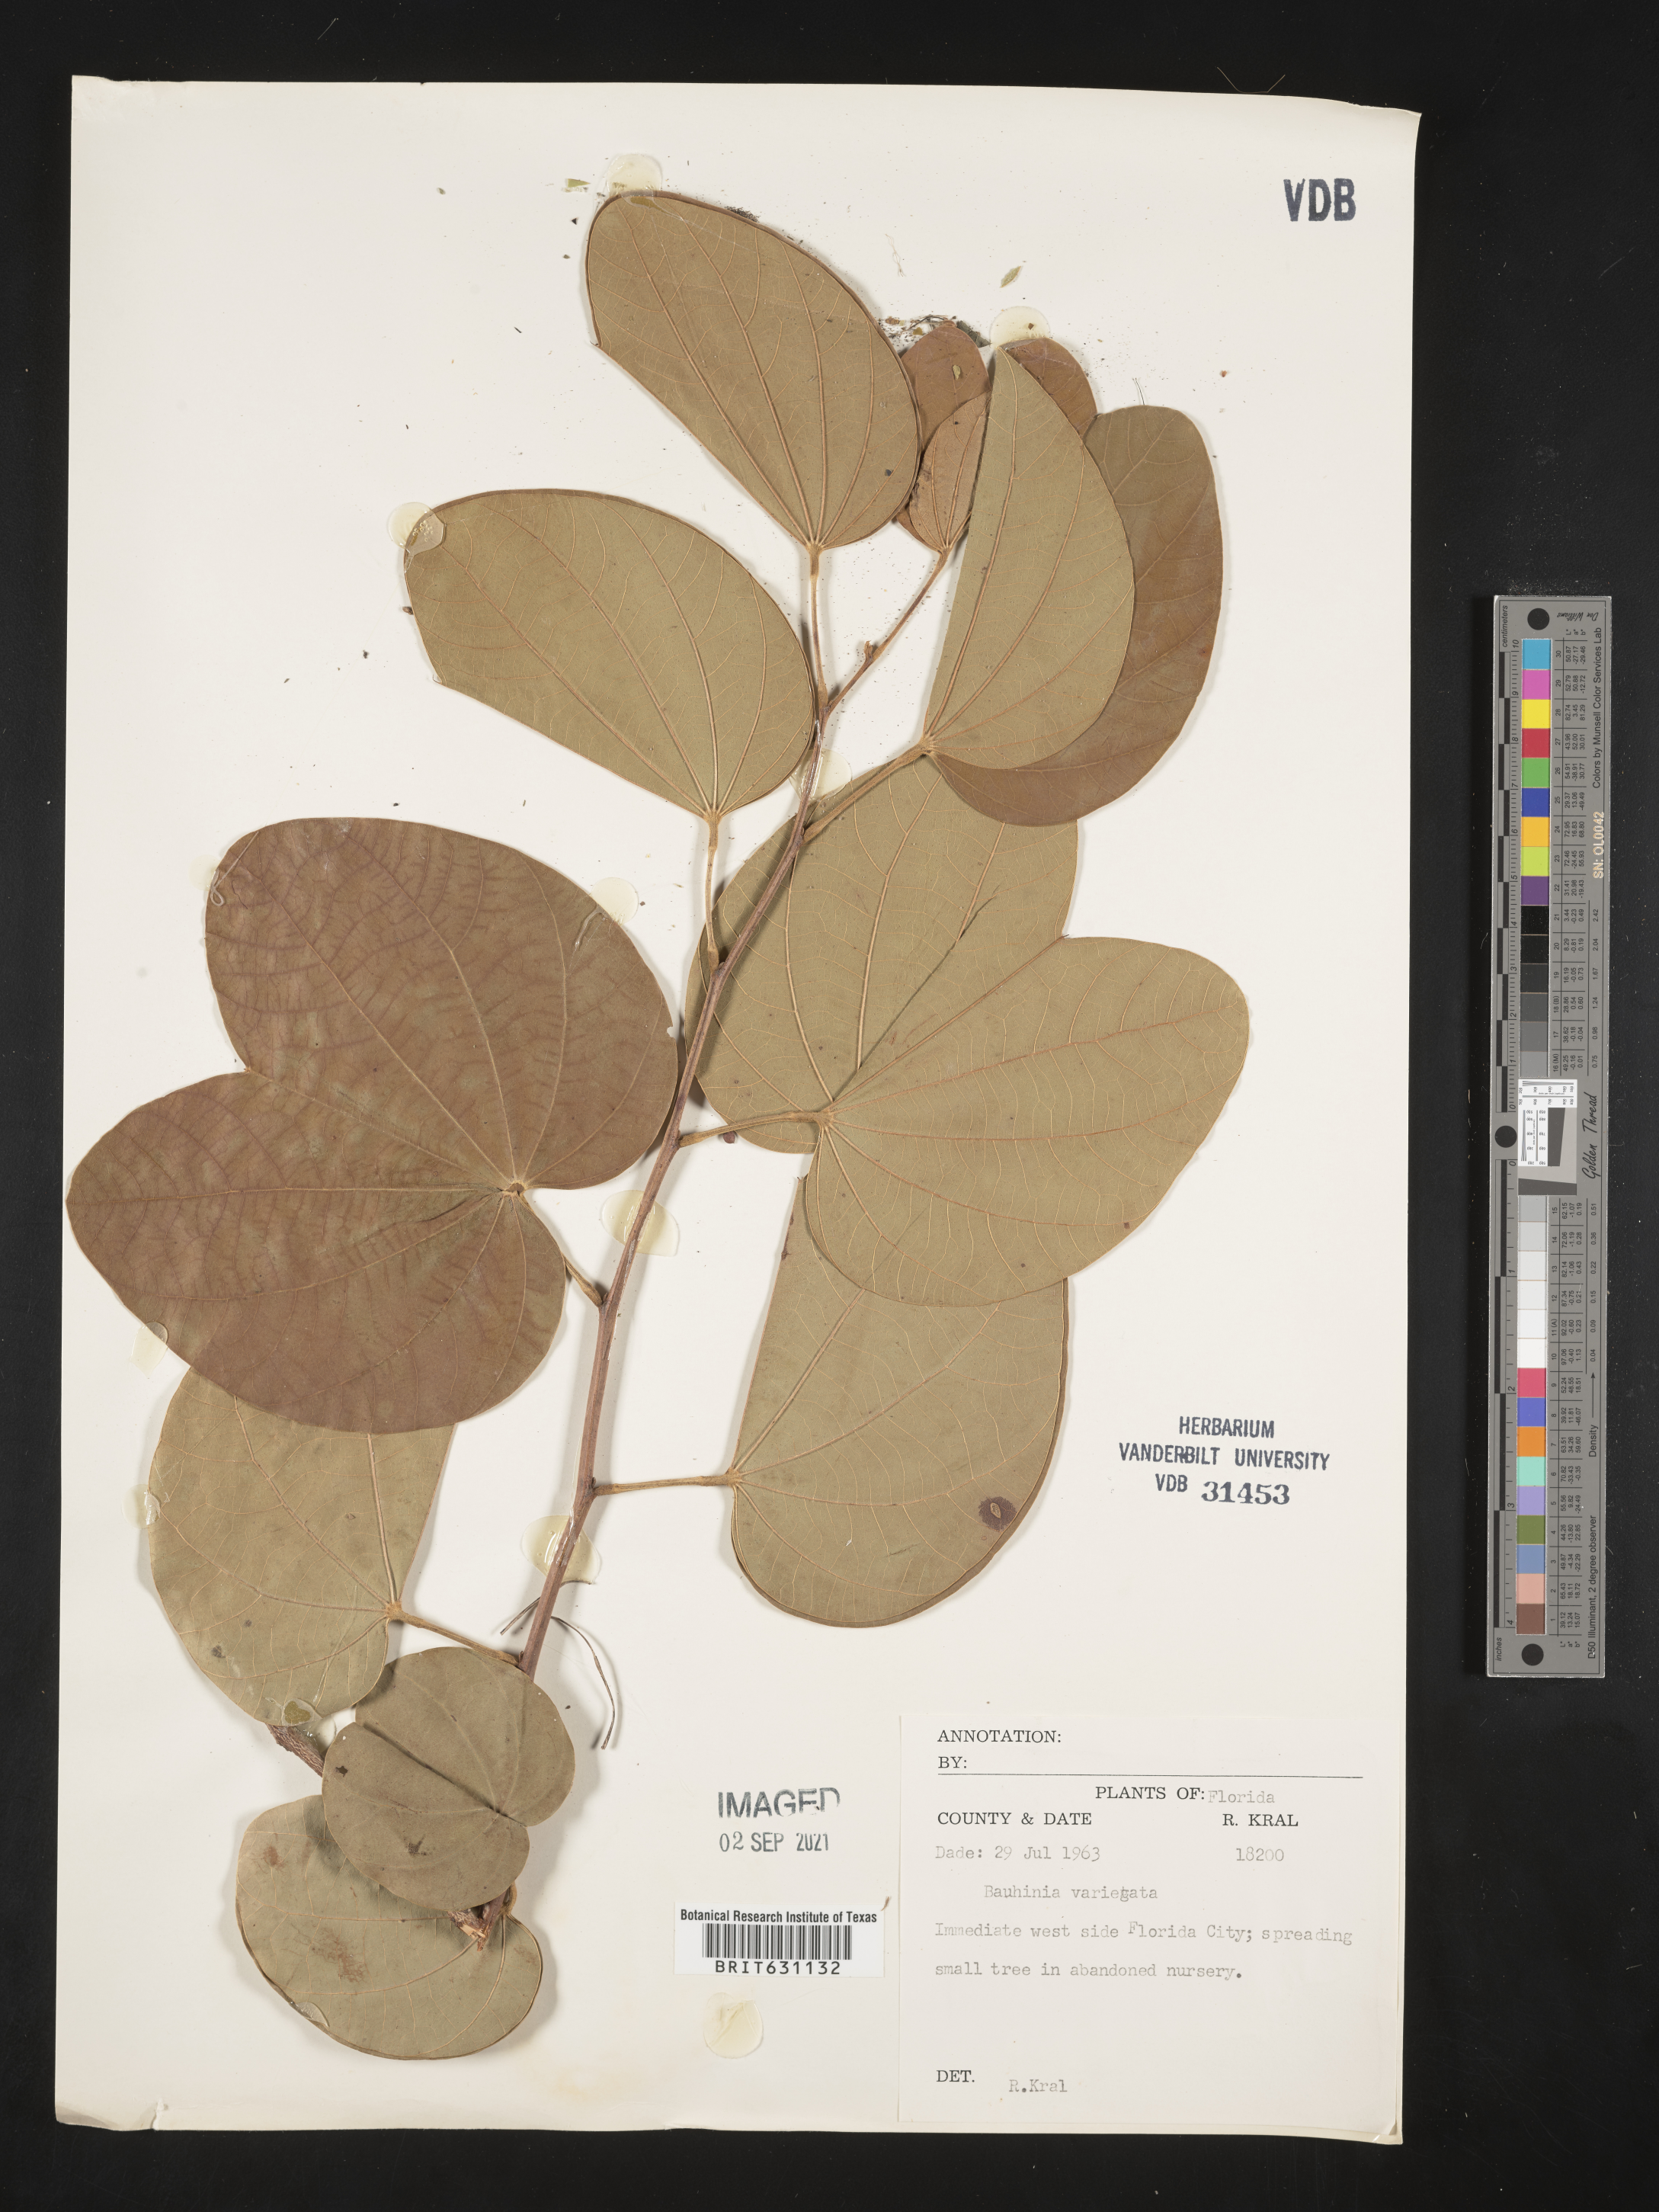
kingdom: Plantae
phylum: Tracheophyta
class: Magnoliopsida
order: Fabales
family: Fabaceae
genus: Bauhinia
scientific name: Bauhinia
